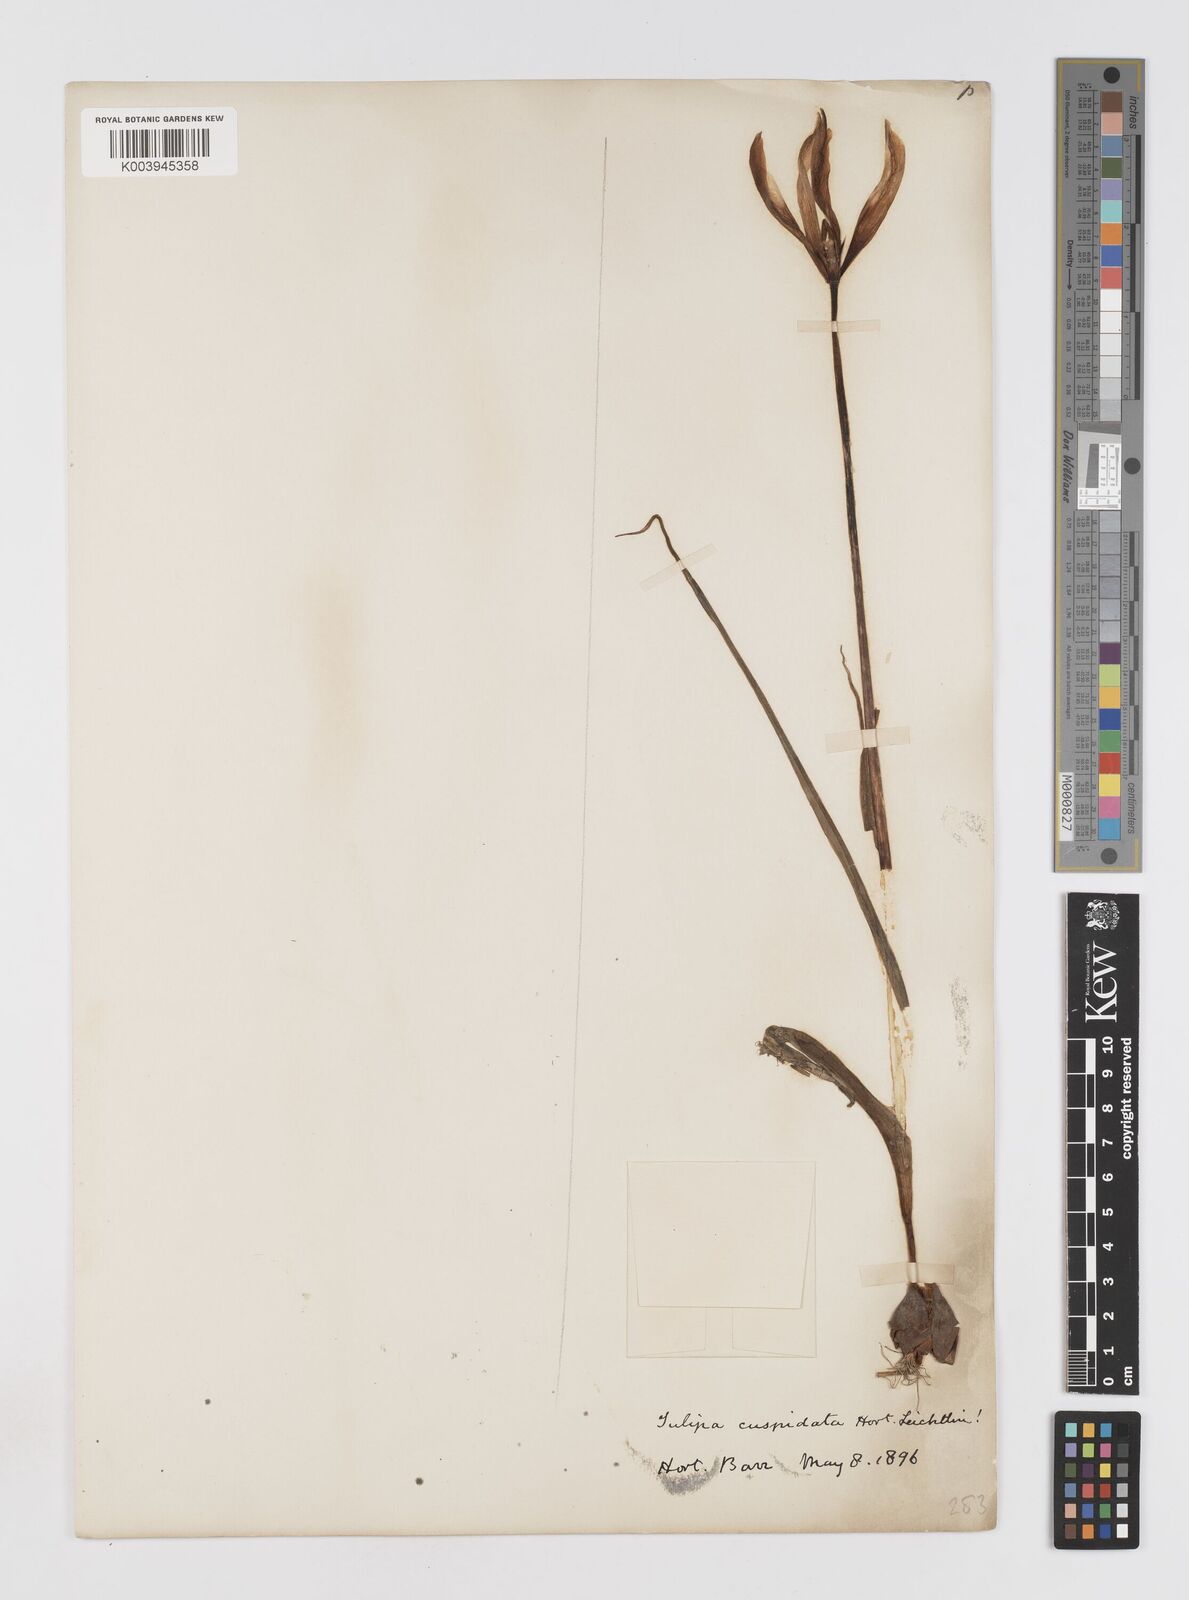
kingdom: Plantae
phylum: Tracheophyta
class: Liliopsida
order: Liliales
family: Liliaceae
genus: Tulipa
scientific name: Tulipa
